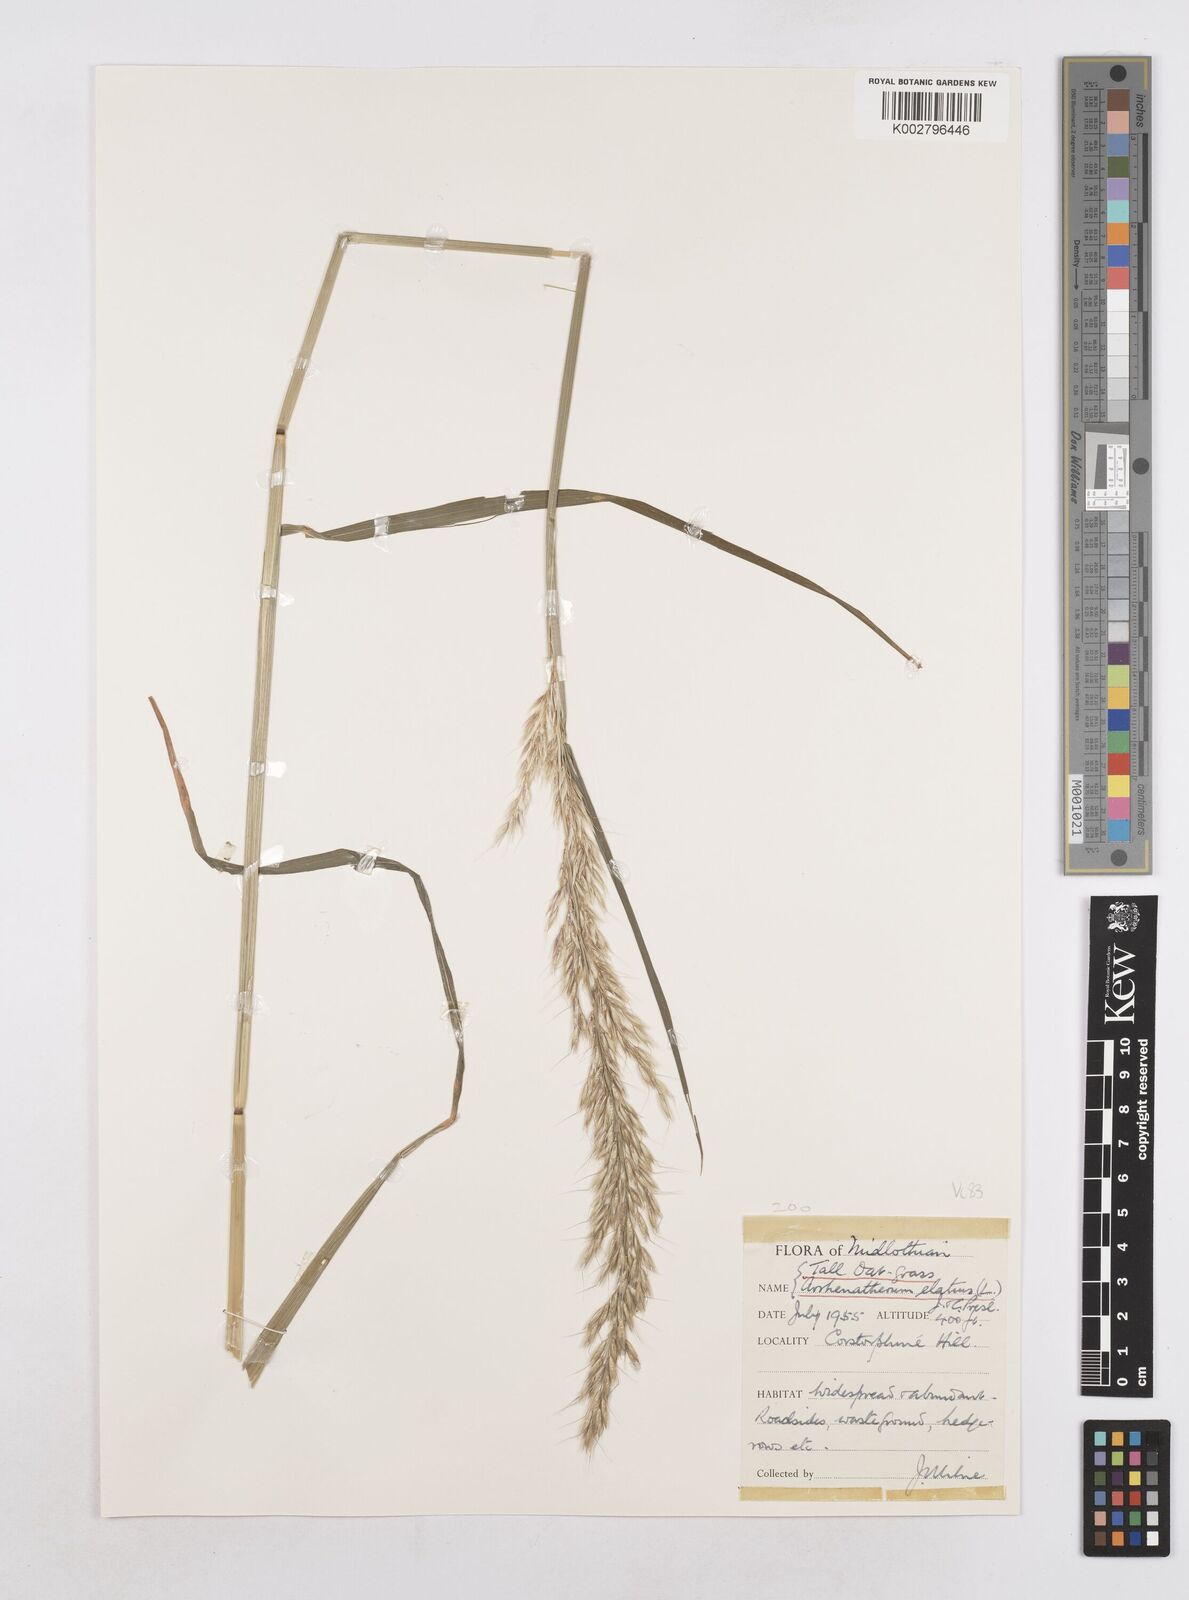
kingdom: Plantae
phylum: Tracheophyta
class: Liliopsida
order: Poales
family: Poaceae
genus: Arrhenatherum
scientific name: Arrhenatherum elatius
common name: Tall oatgrass
